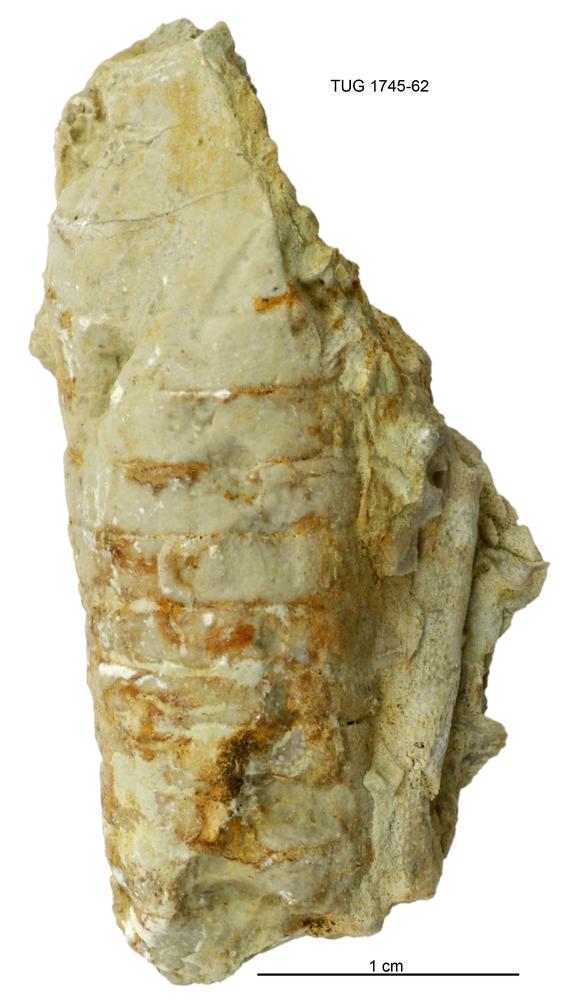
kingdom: Animalia
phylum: Mollusca
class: Cephalopoda
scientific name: Cephalopoda
